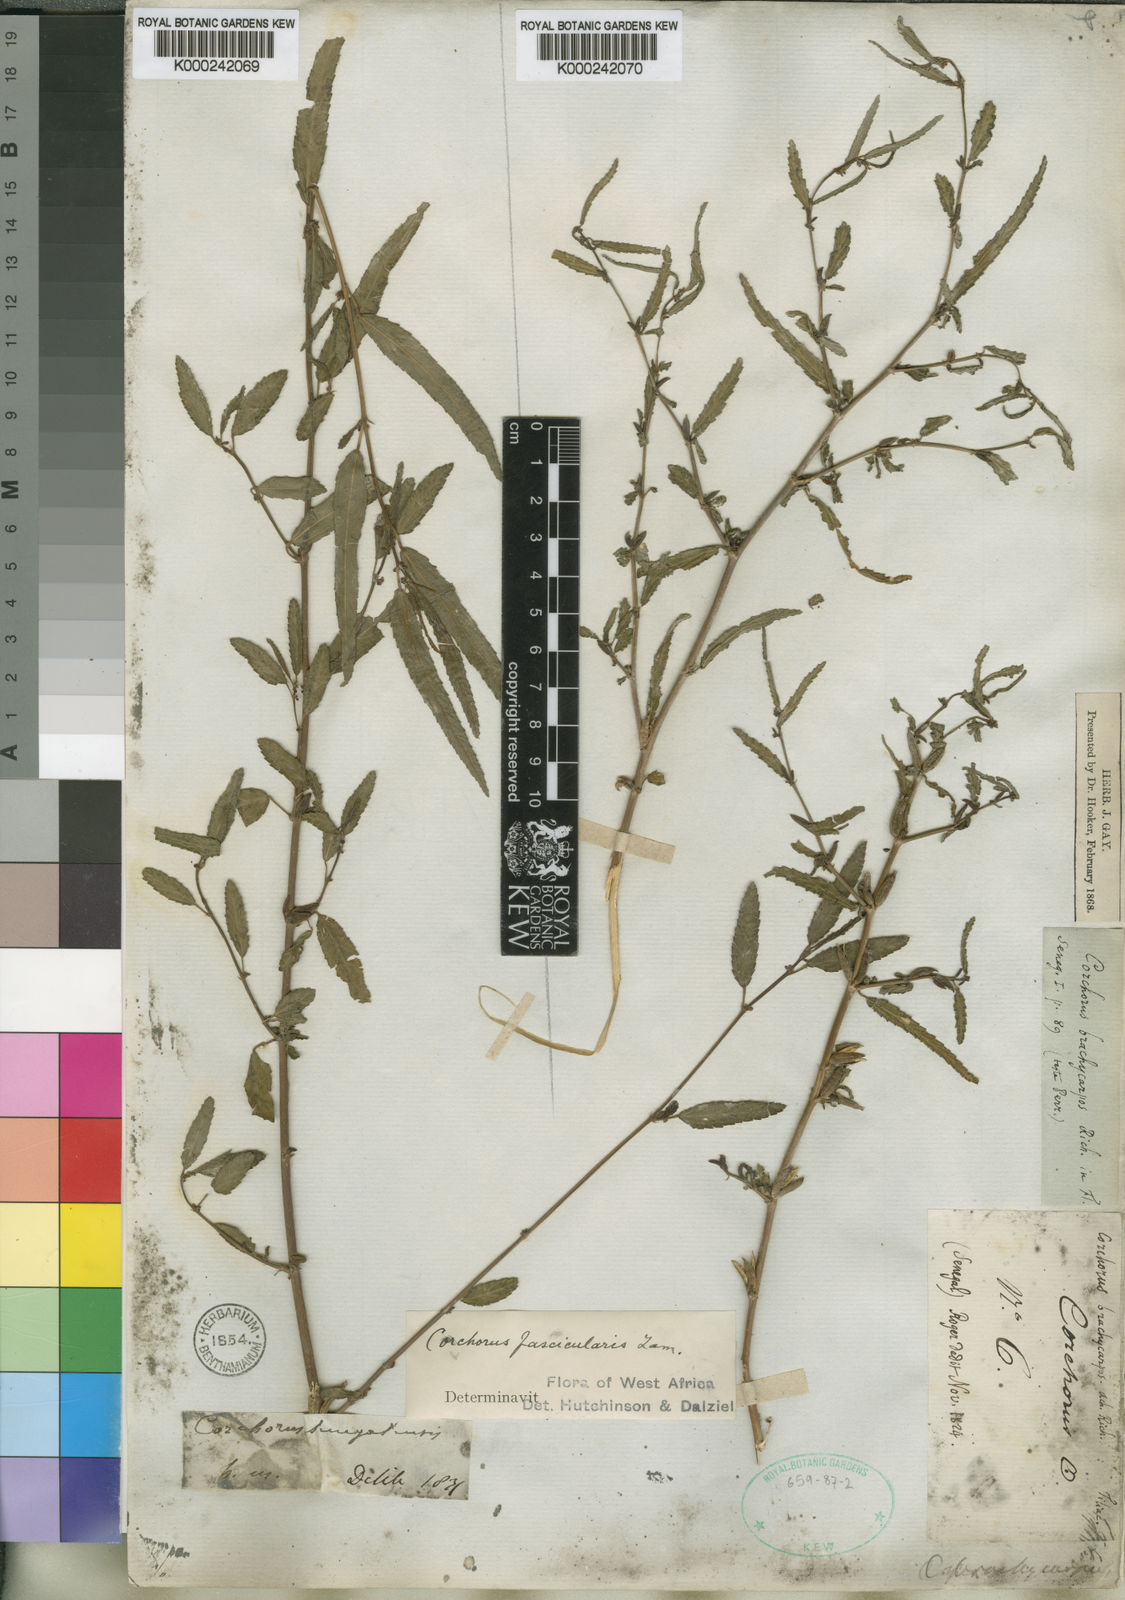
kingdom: Plantae
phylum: Tracheophyta
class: Magnoliopsida
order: Malvales
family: Malvaceae
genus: Corchorus
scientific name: Corchorus fascicularis
